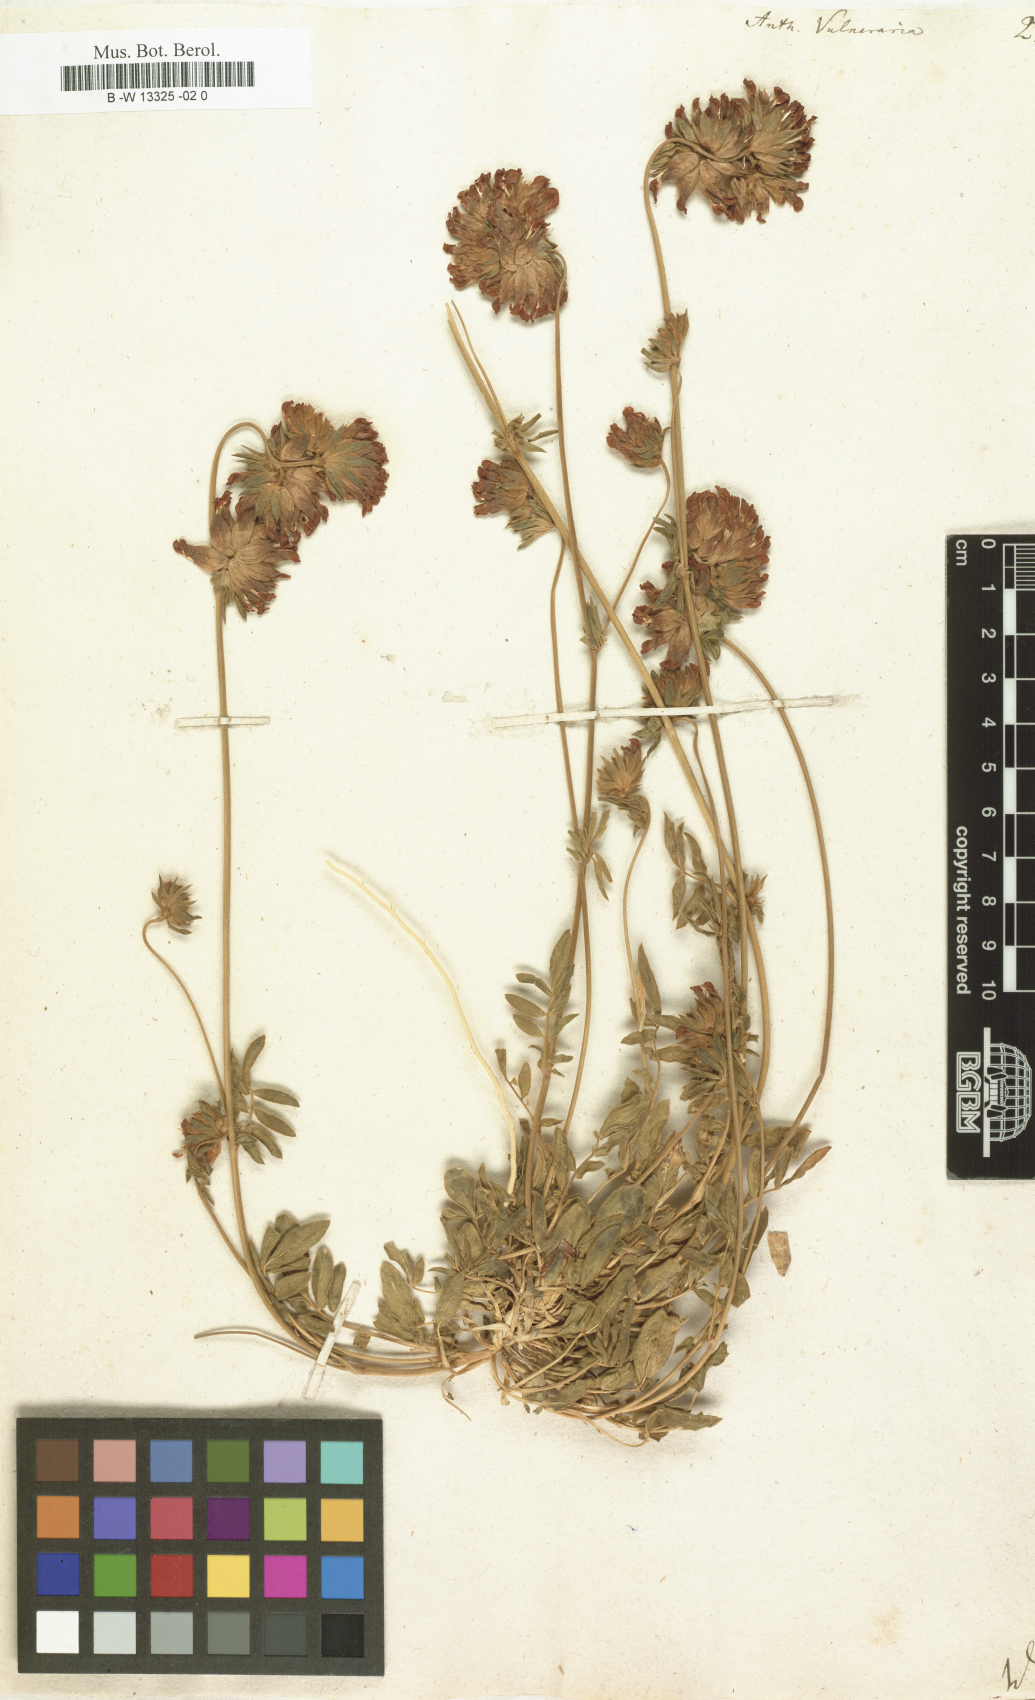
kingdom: Plantae
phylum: Tracheophyta
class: Magnoliopsida
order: Fabales
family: Fabaceae
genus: Anthyllis
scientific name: Anthyllis vulneraria
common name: Kidney vetch
